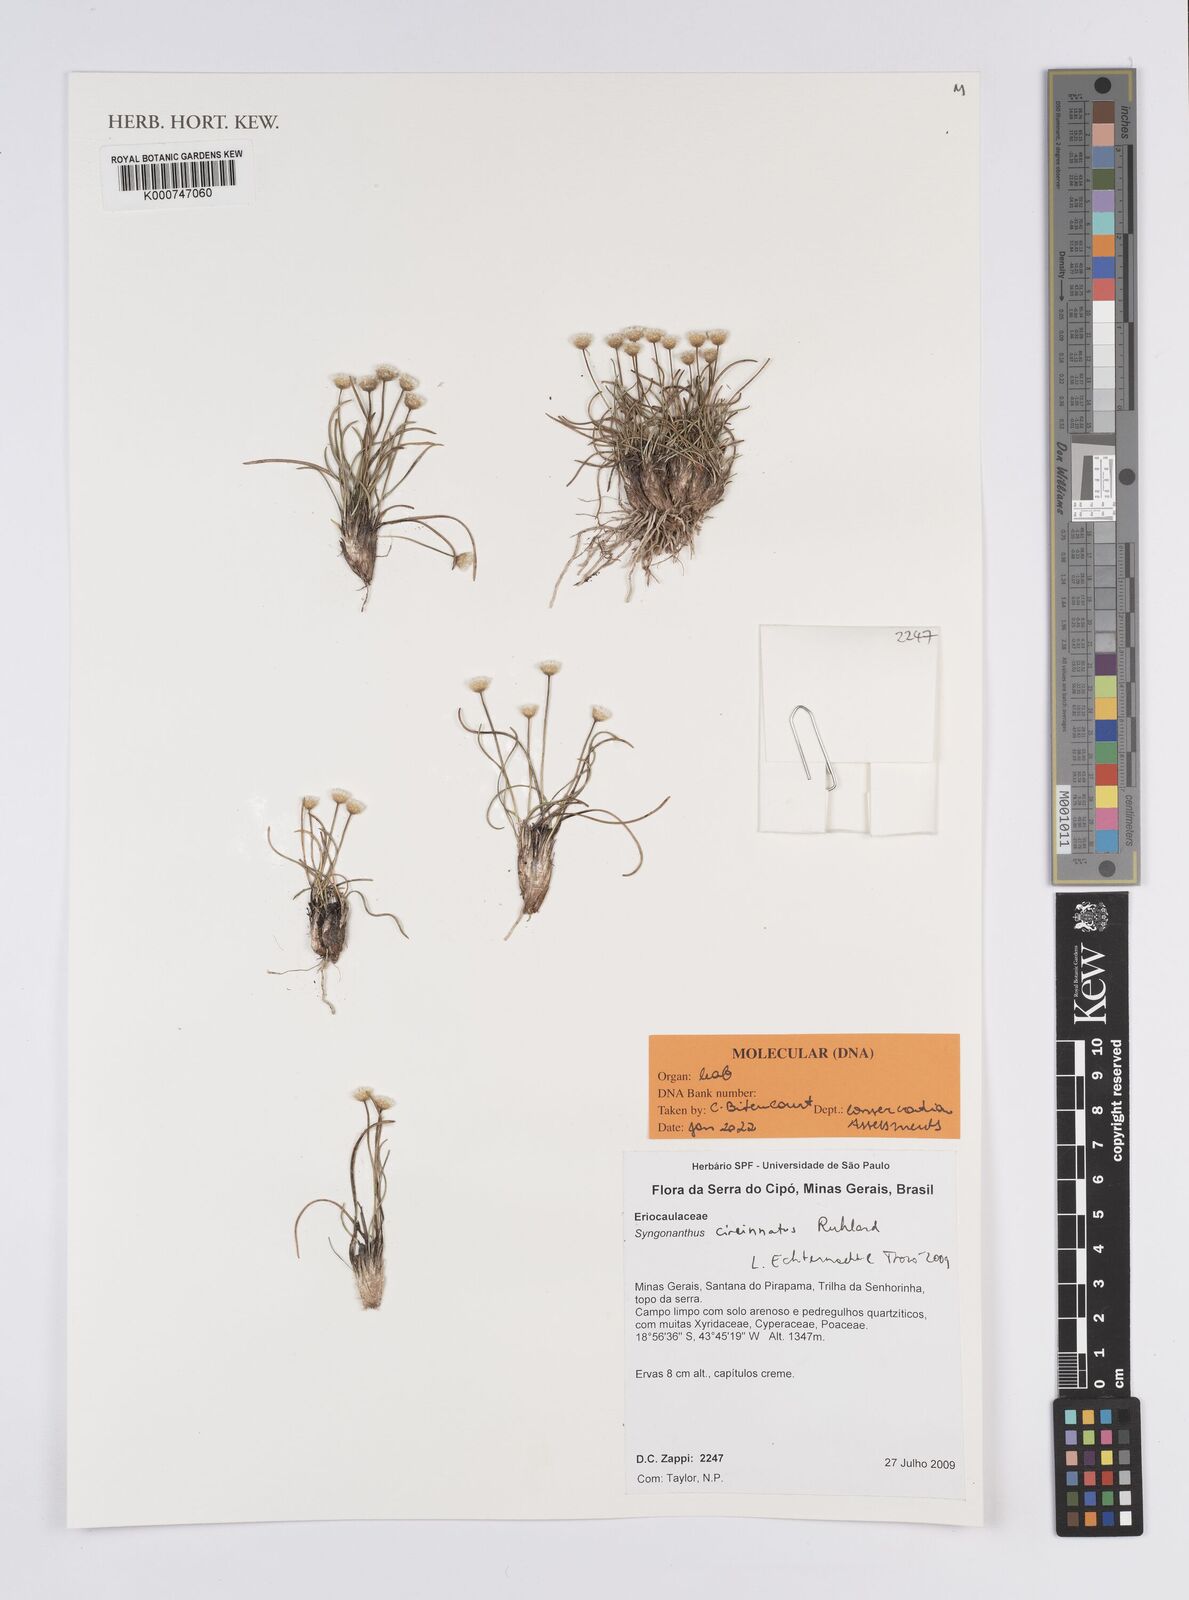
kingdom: Plantae
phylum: Tracheophyta
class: Liliopsida
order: Poales
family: Eriocaulaceae
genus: Comanthera
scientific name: Comanthera circinnata
